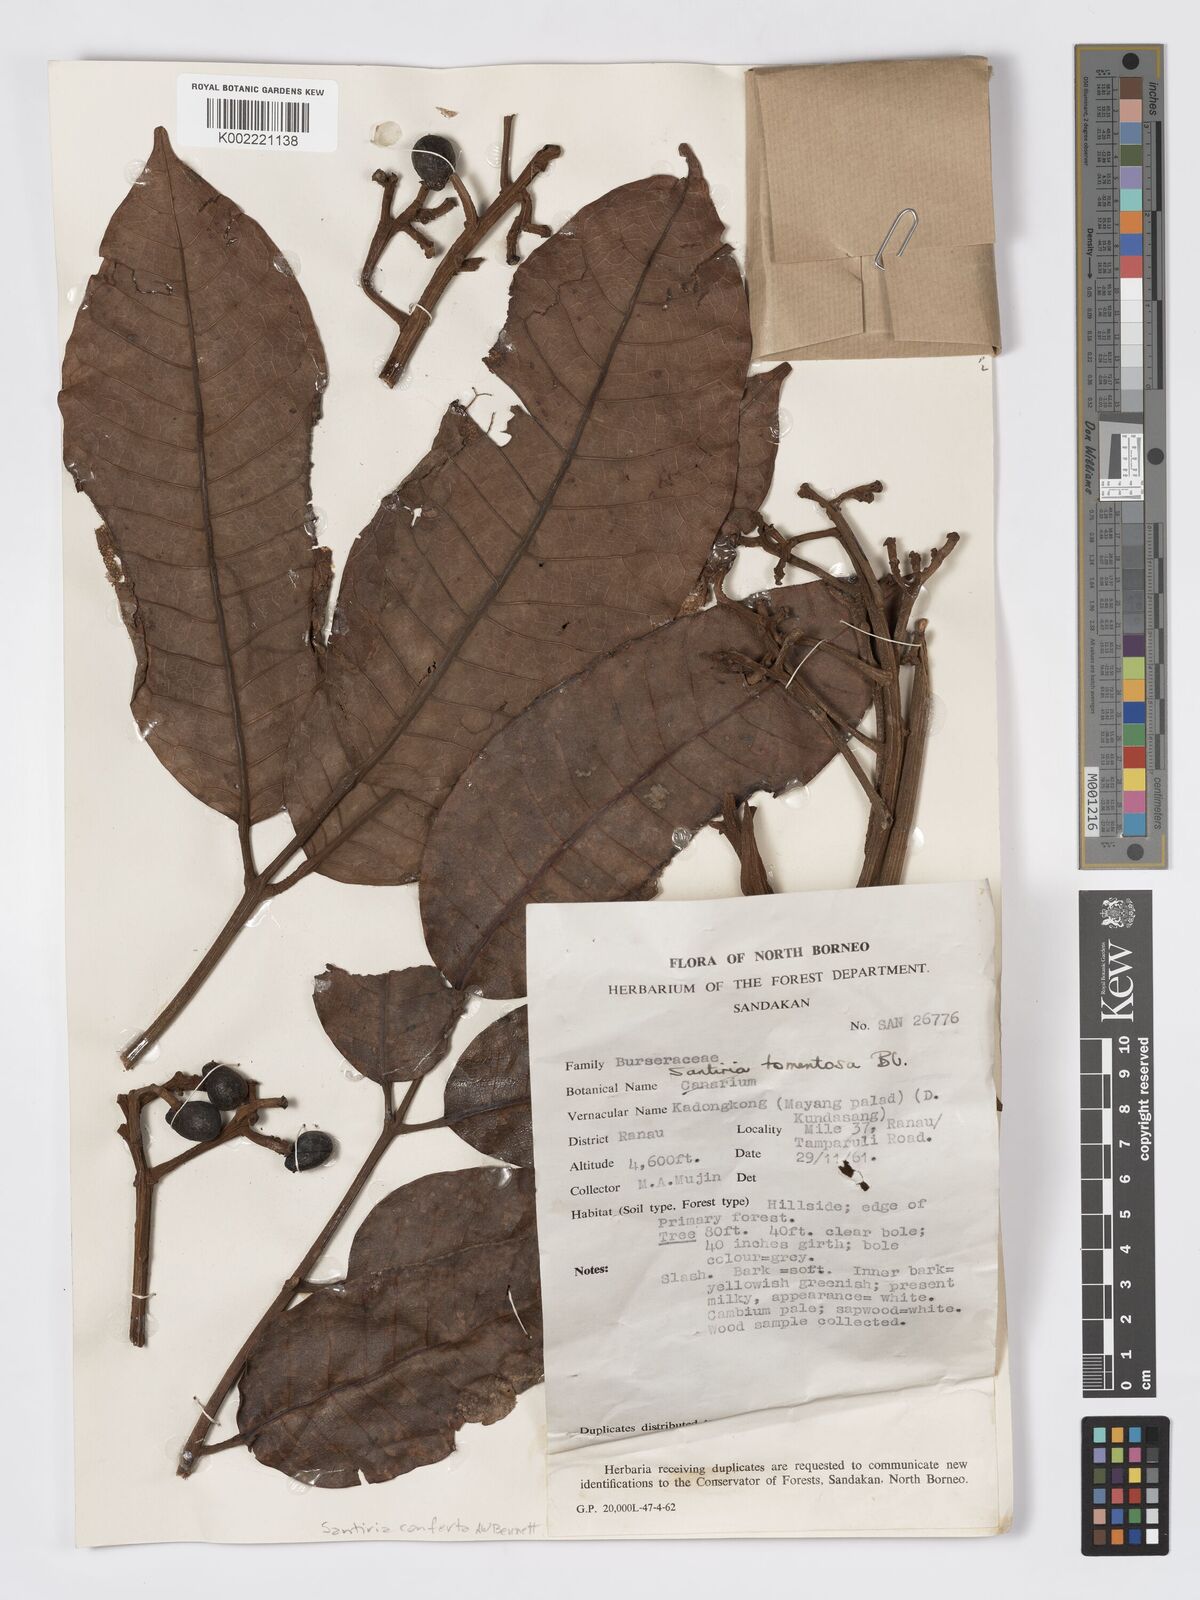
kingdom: Plantae
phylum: Tracheophyta
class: Magnoliopsida
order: Sapindales
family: Burseraceae
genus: Santiria
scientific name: Santiria conferta
